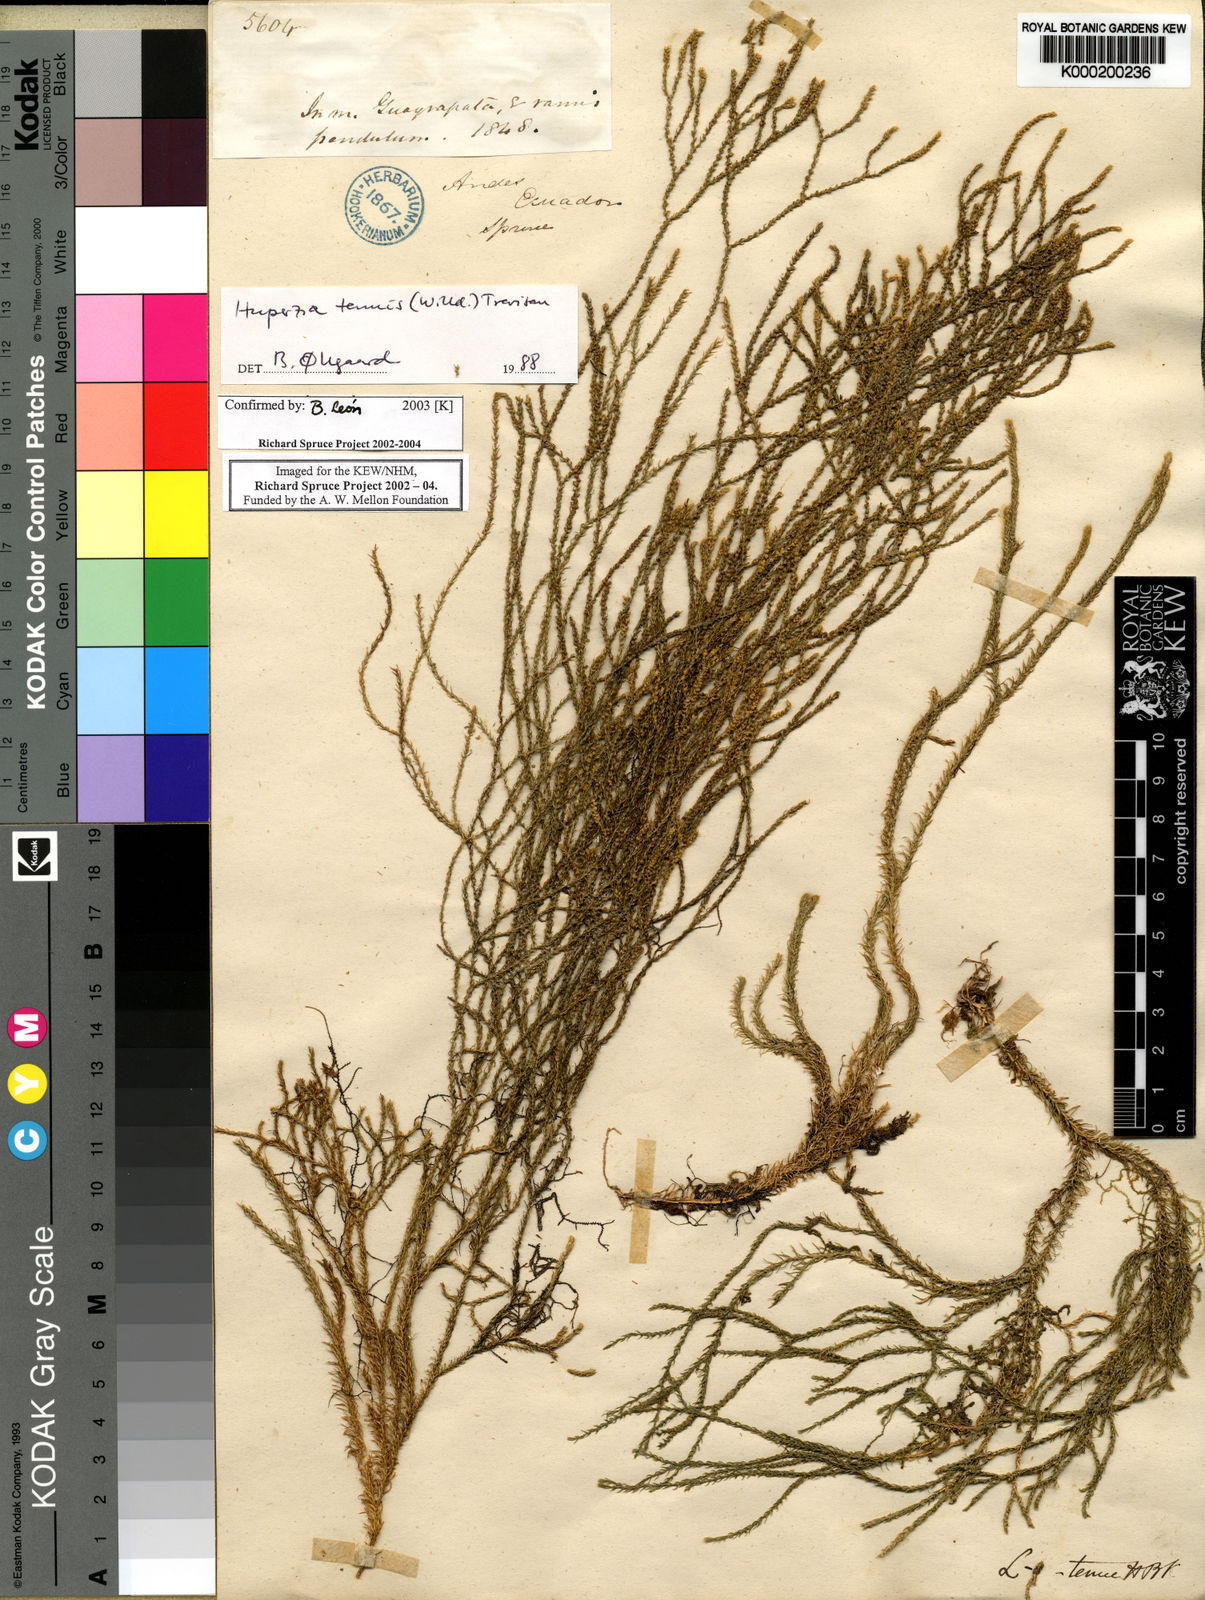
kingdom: Plantae
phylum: Tracheophyta
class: Lycopodiopsida
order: Lycopodiales
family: Lycopodiaceae
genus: Phlegmariurus
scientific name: Phlegmariurus tenuis
